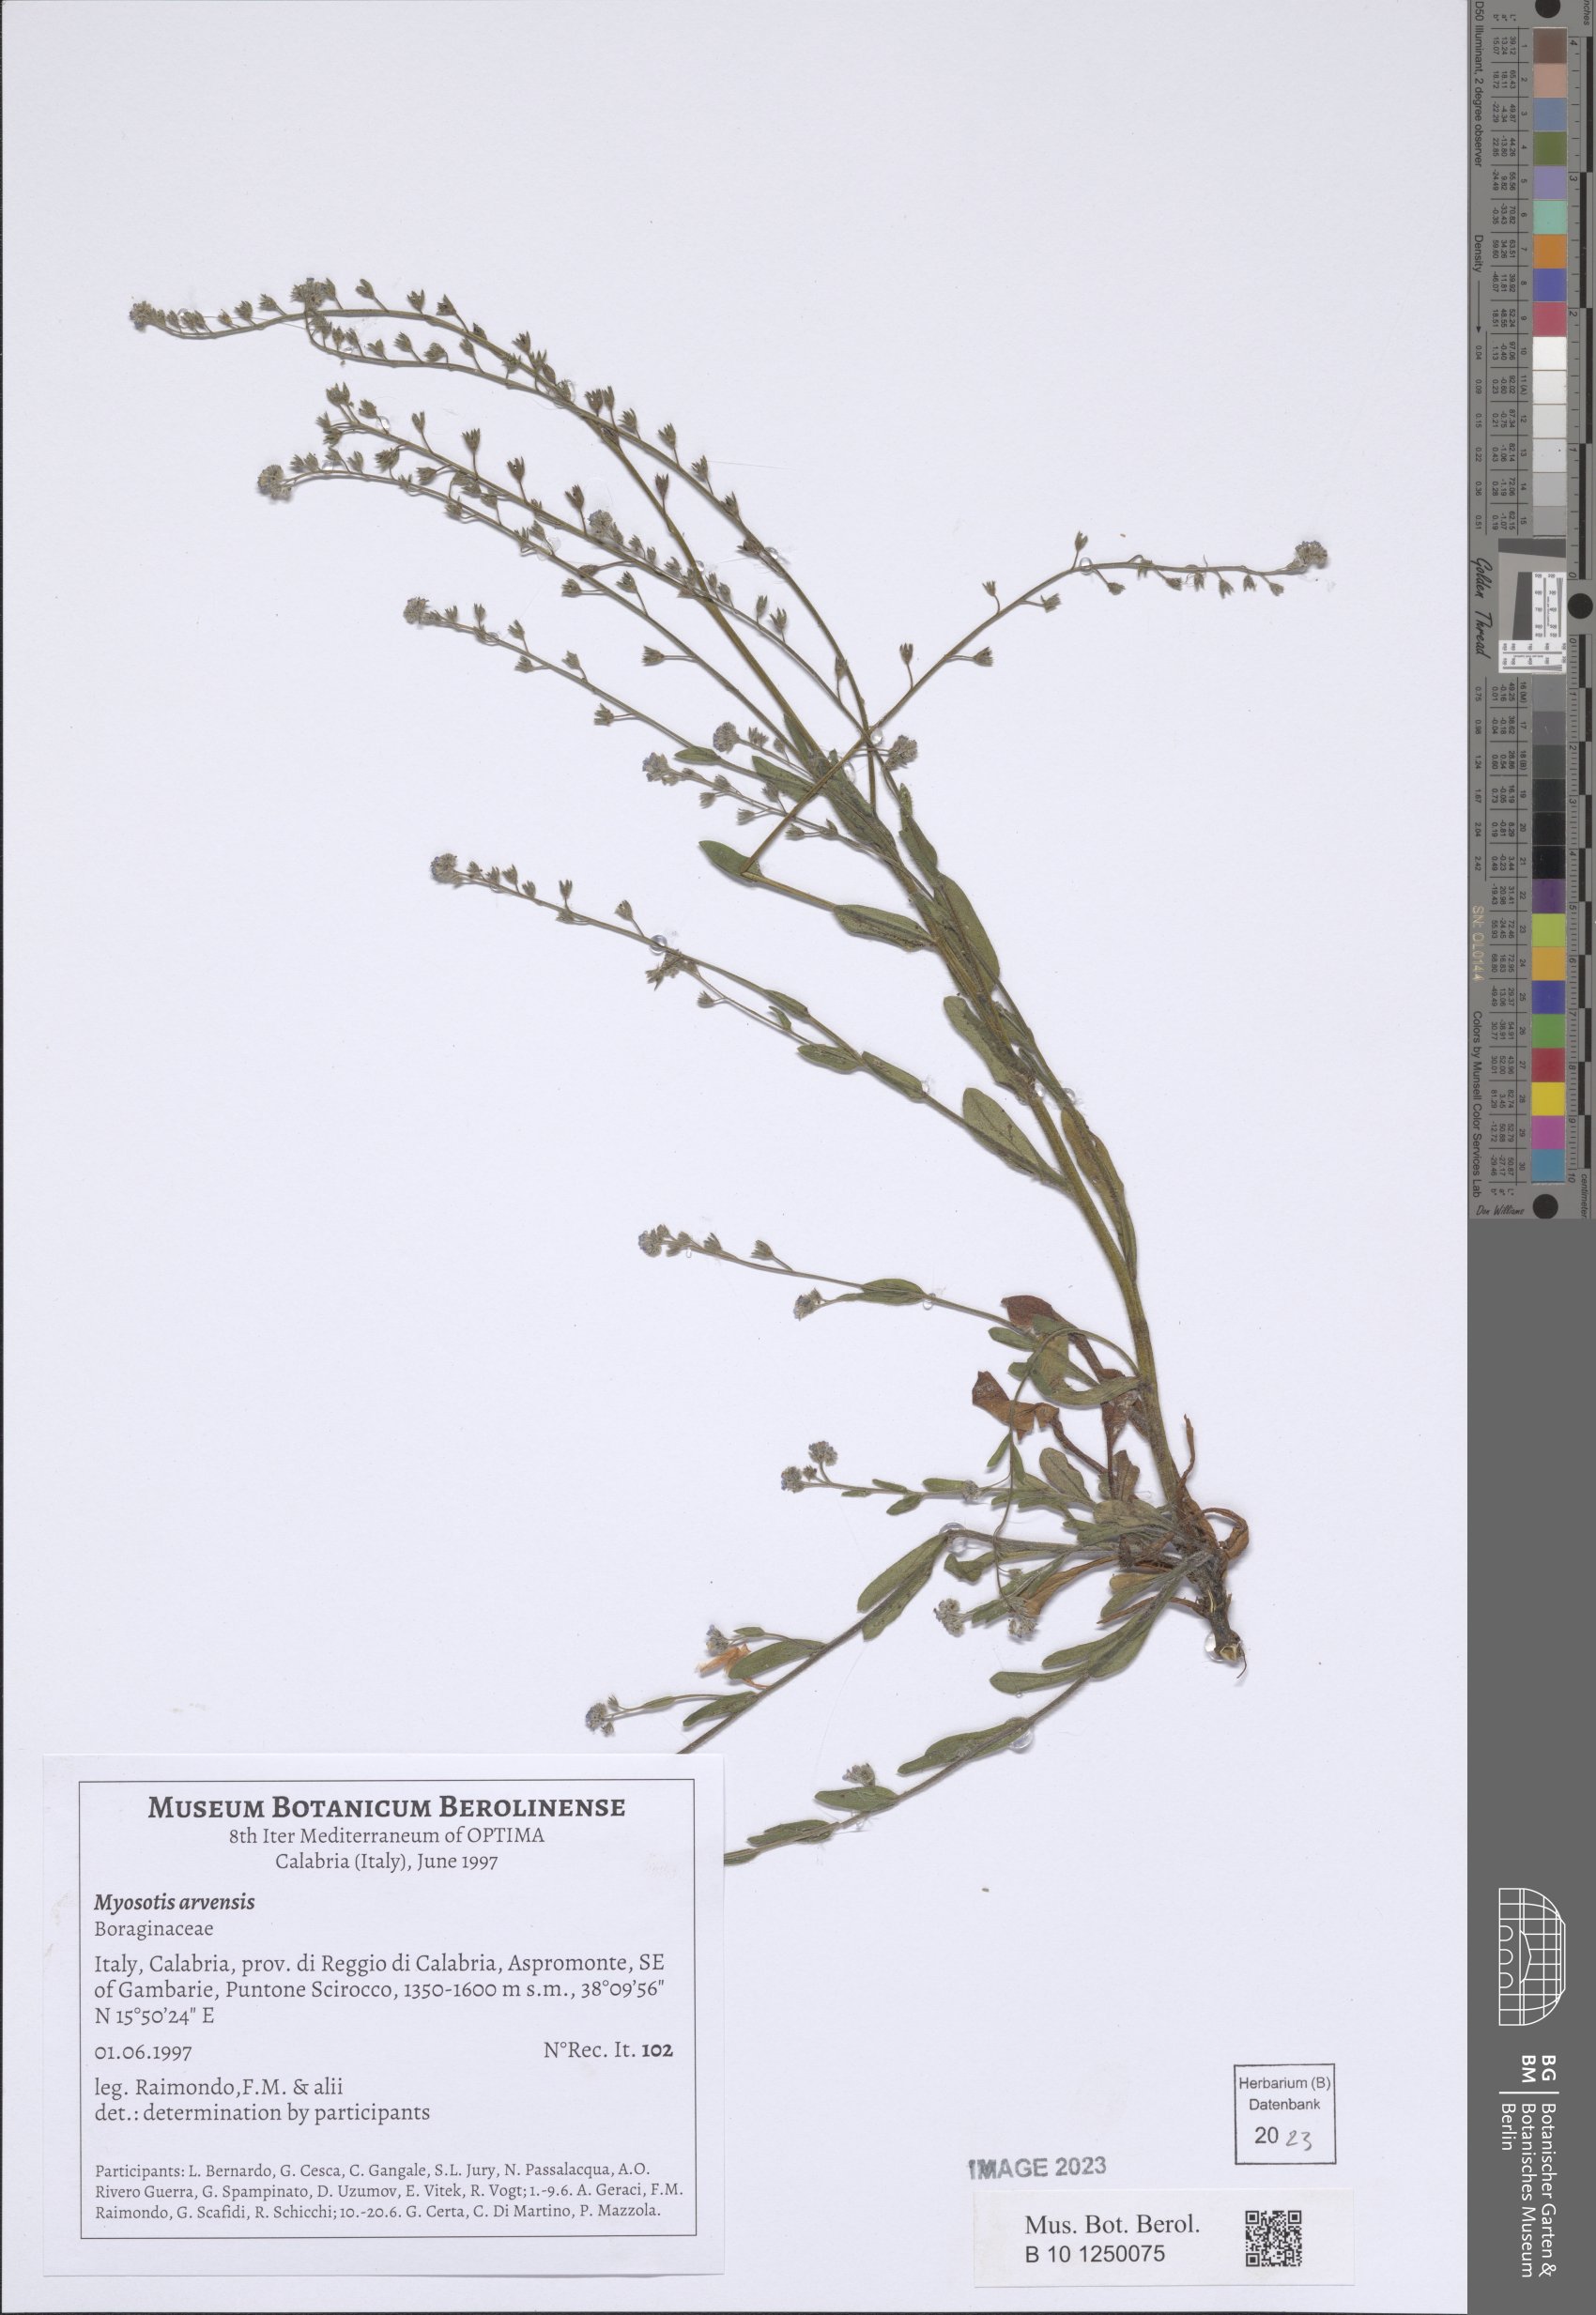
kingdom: Plantae
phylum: Tracheophyta
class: Magnoliopsida
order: Boraginales
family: Boraginaceae
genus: Myosotis
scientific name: Myosotis arvensis
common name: Field forget-me-not
